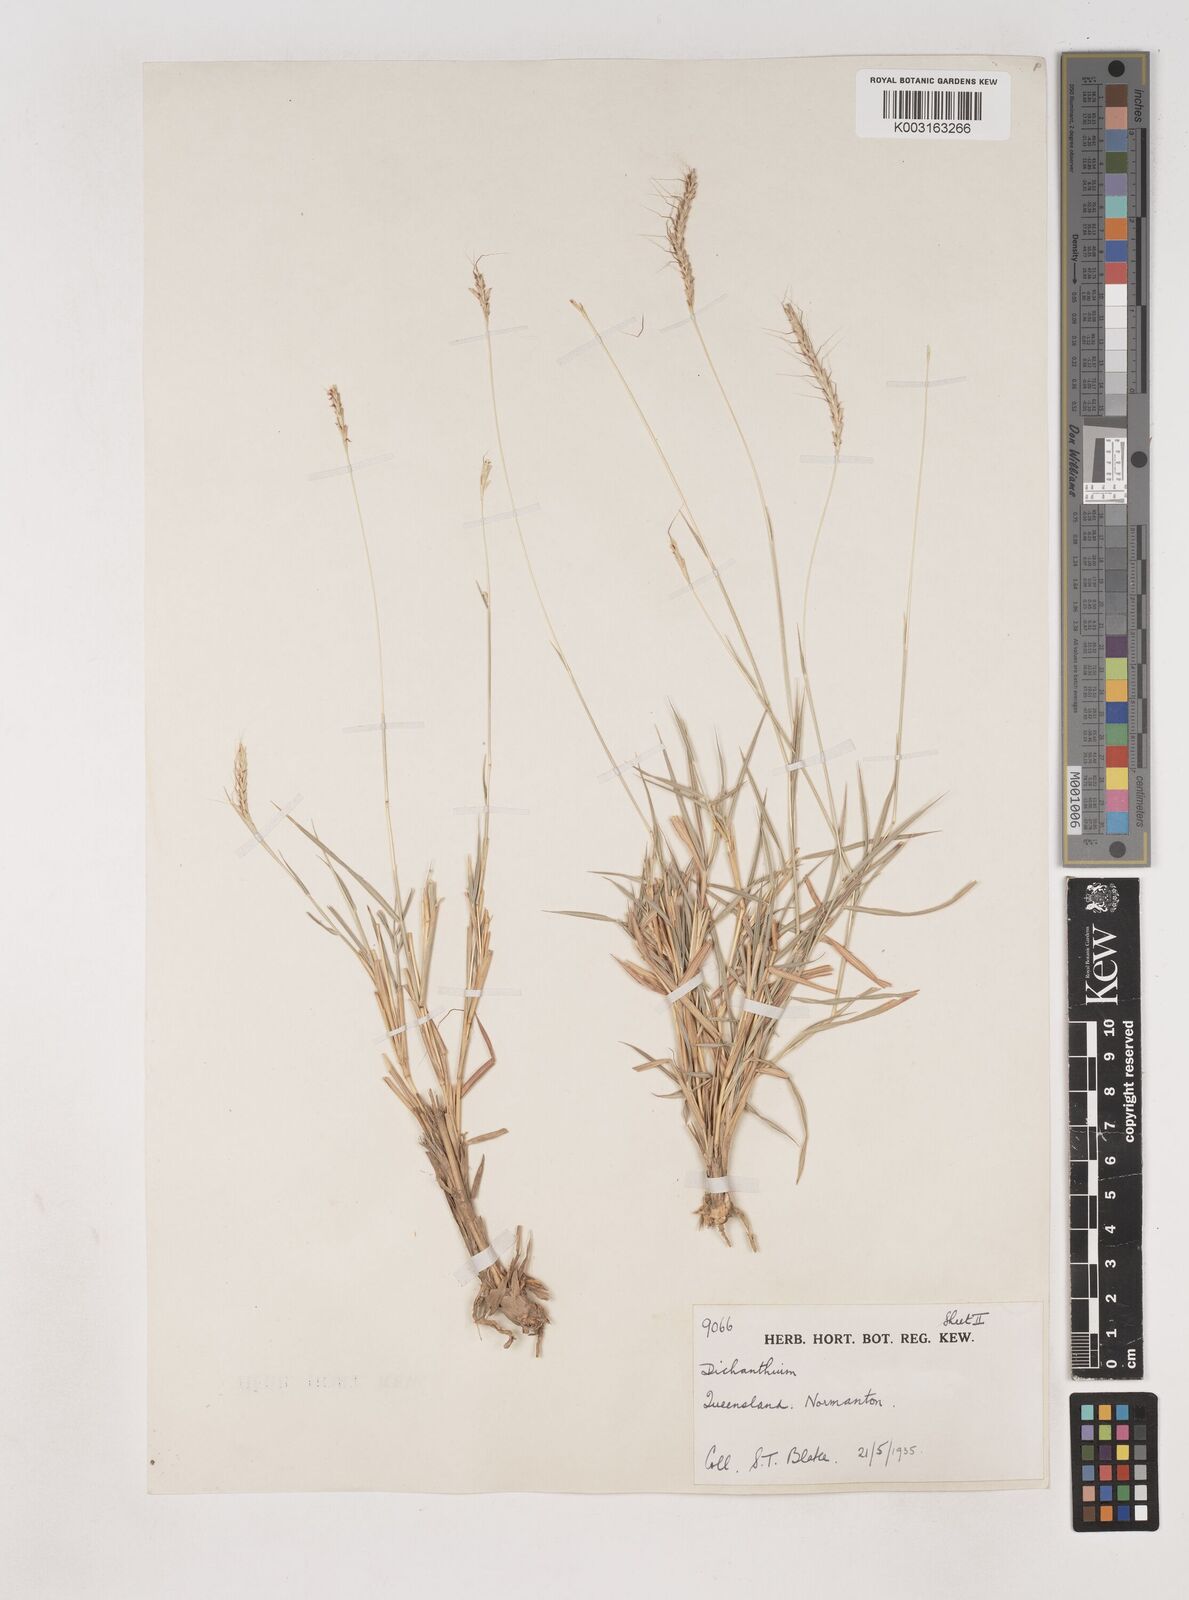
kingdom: Plantae
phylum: Tracheophyta
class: Liliopsida
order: Poales
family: Poaceae
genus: Dichanthium
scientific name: Dichanthium fecundum
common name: Bundle-bundle
